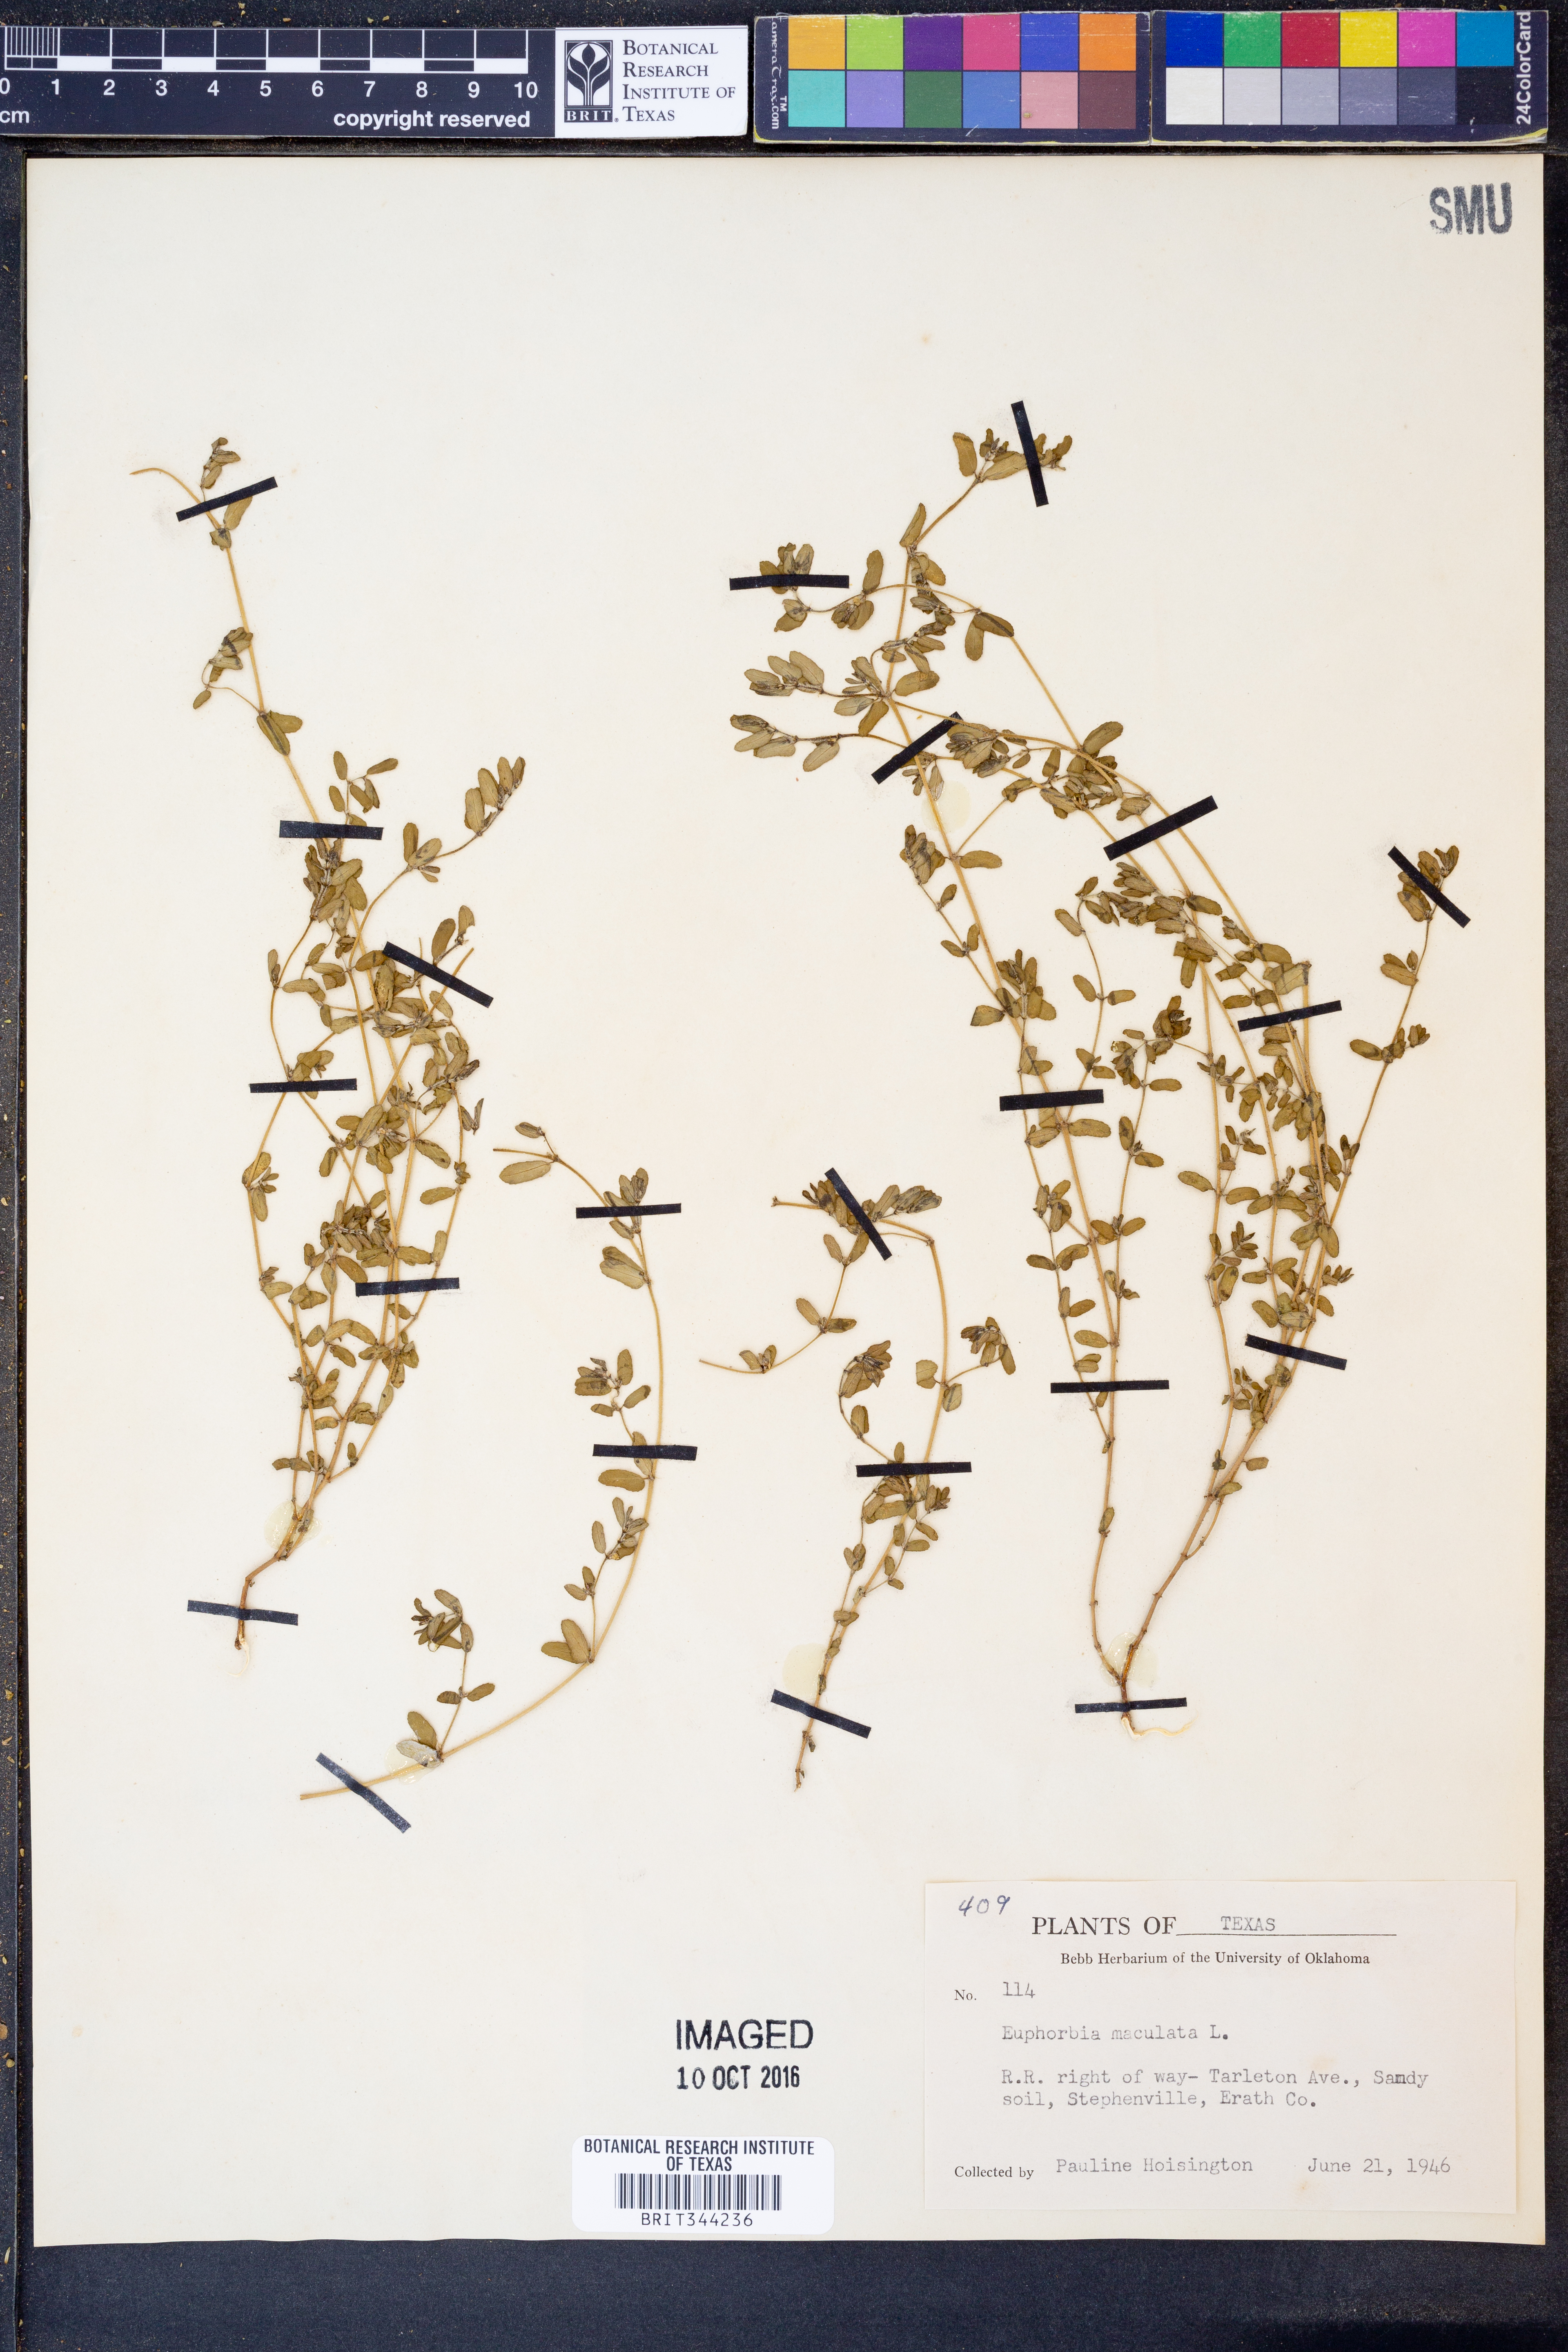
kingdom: Plantae
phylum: Tracheophyta
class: Magnoliopsida
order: Malpighiales
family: Euphorbiaceae
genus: Euphorbia
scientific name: Euphorbia maculata
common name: Spotted spurge
